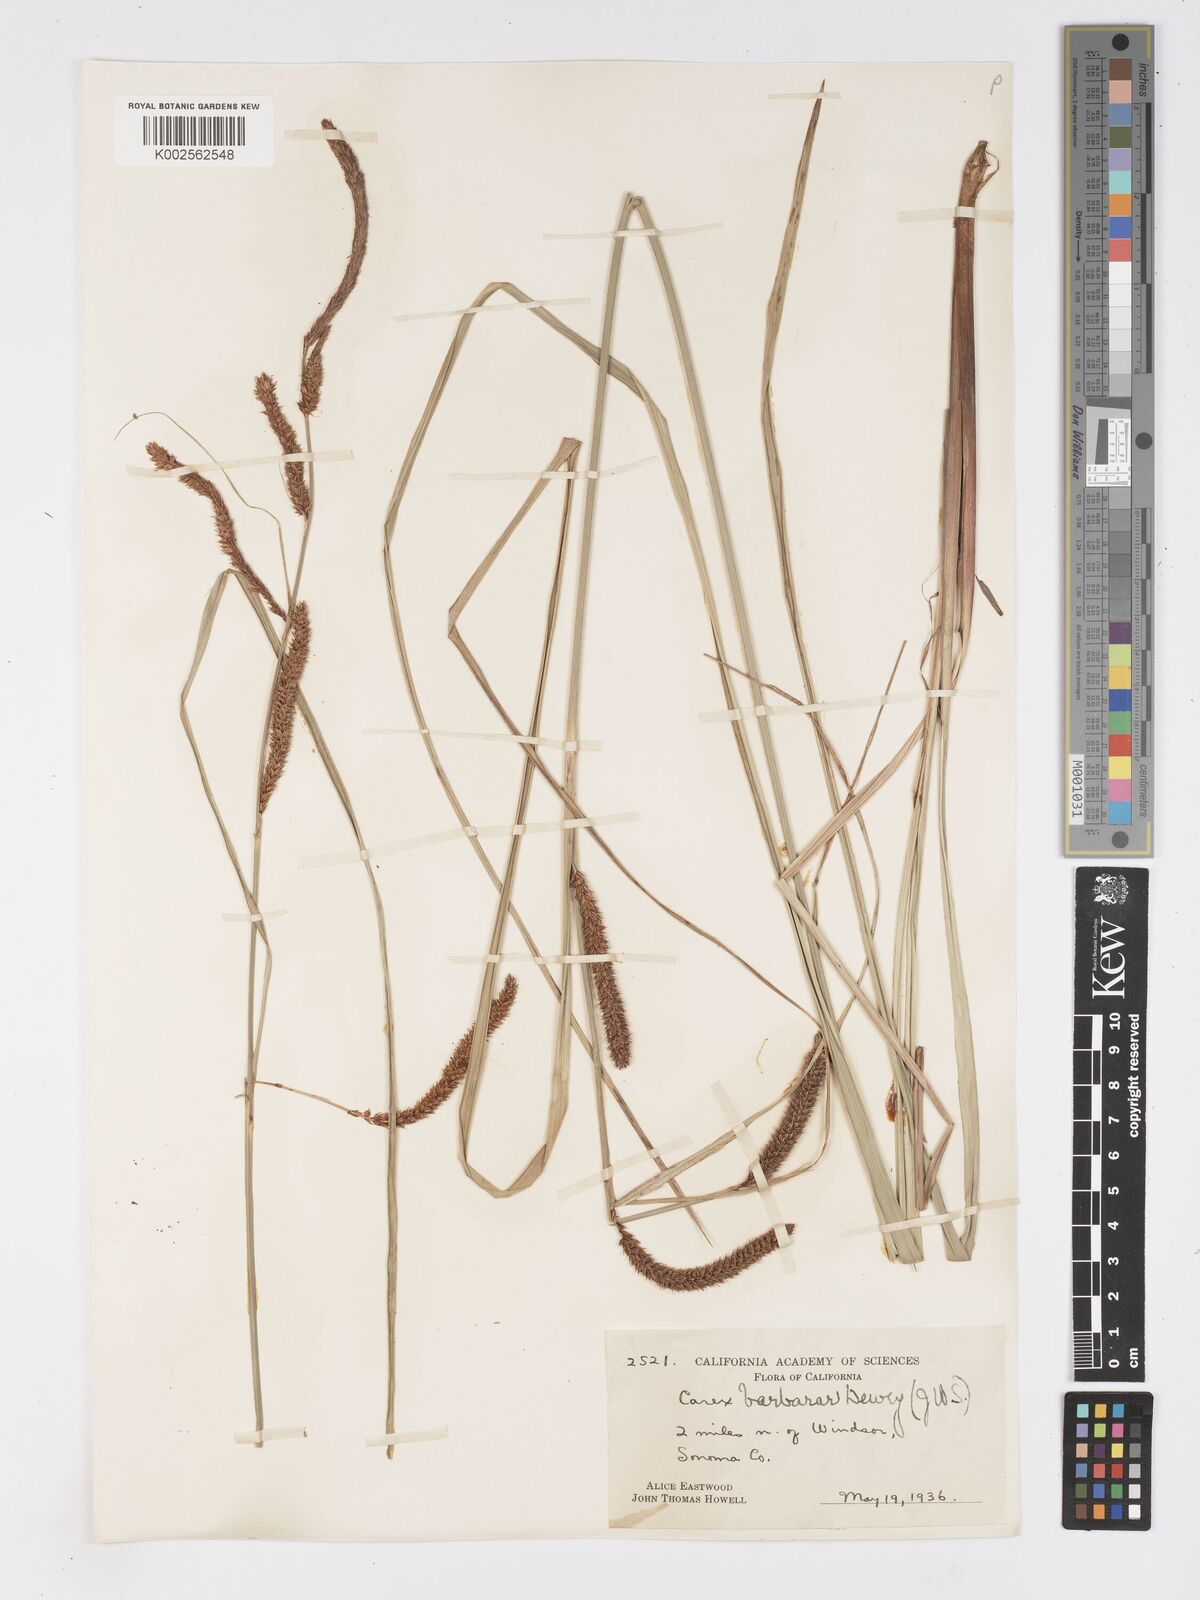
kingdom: Plantae
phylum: Tracheophyta
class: Liliopsida
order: Poales
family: Cyperaceae
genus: Carex
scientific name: Carex schottii
